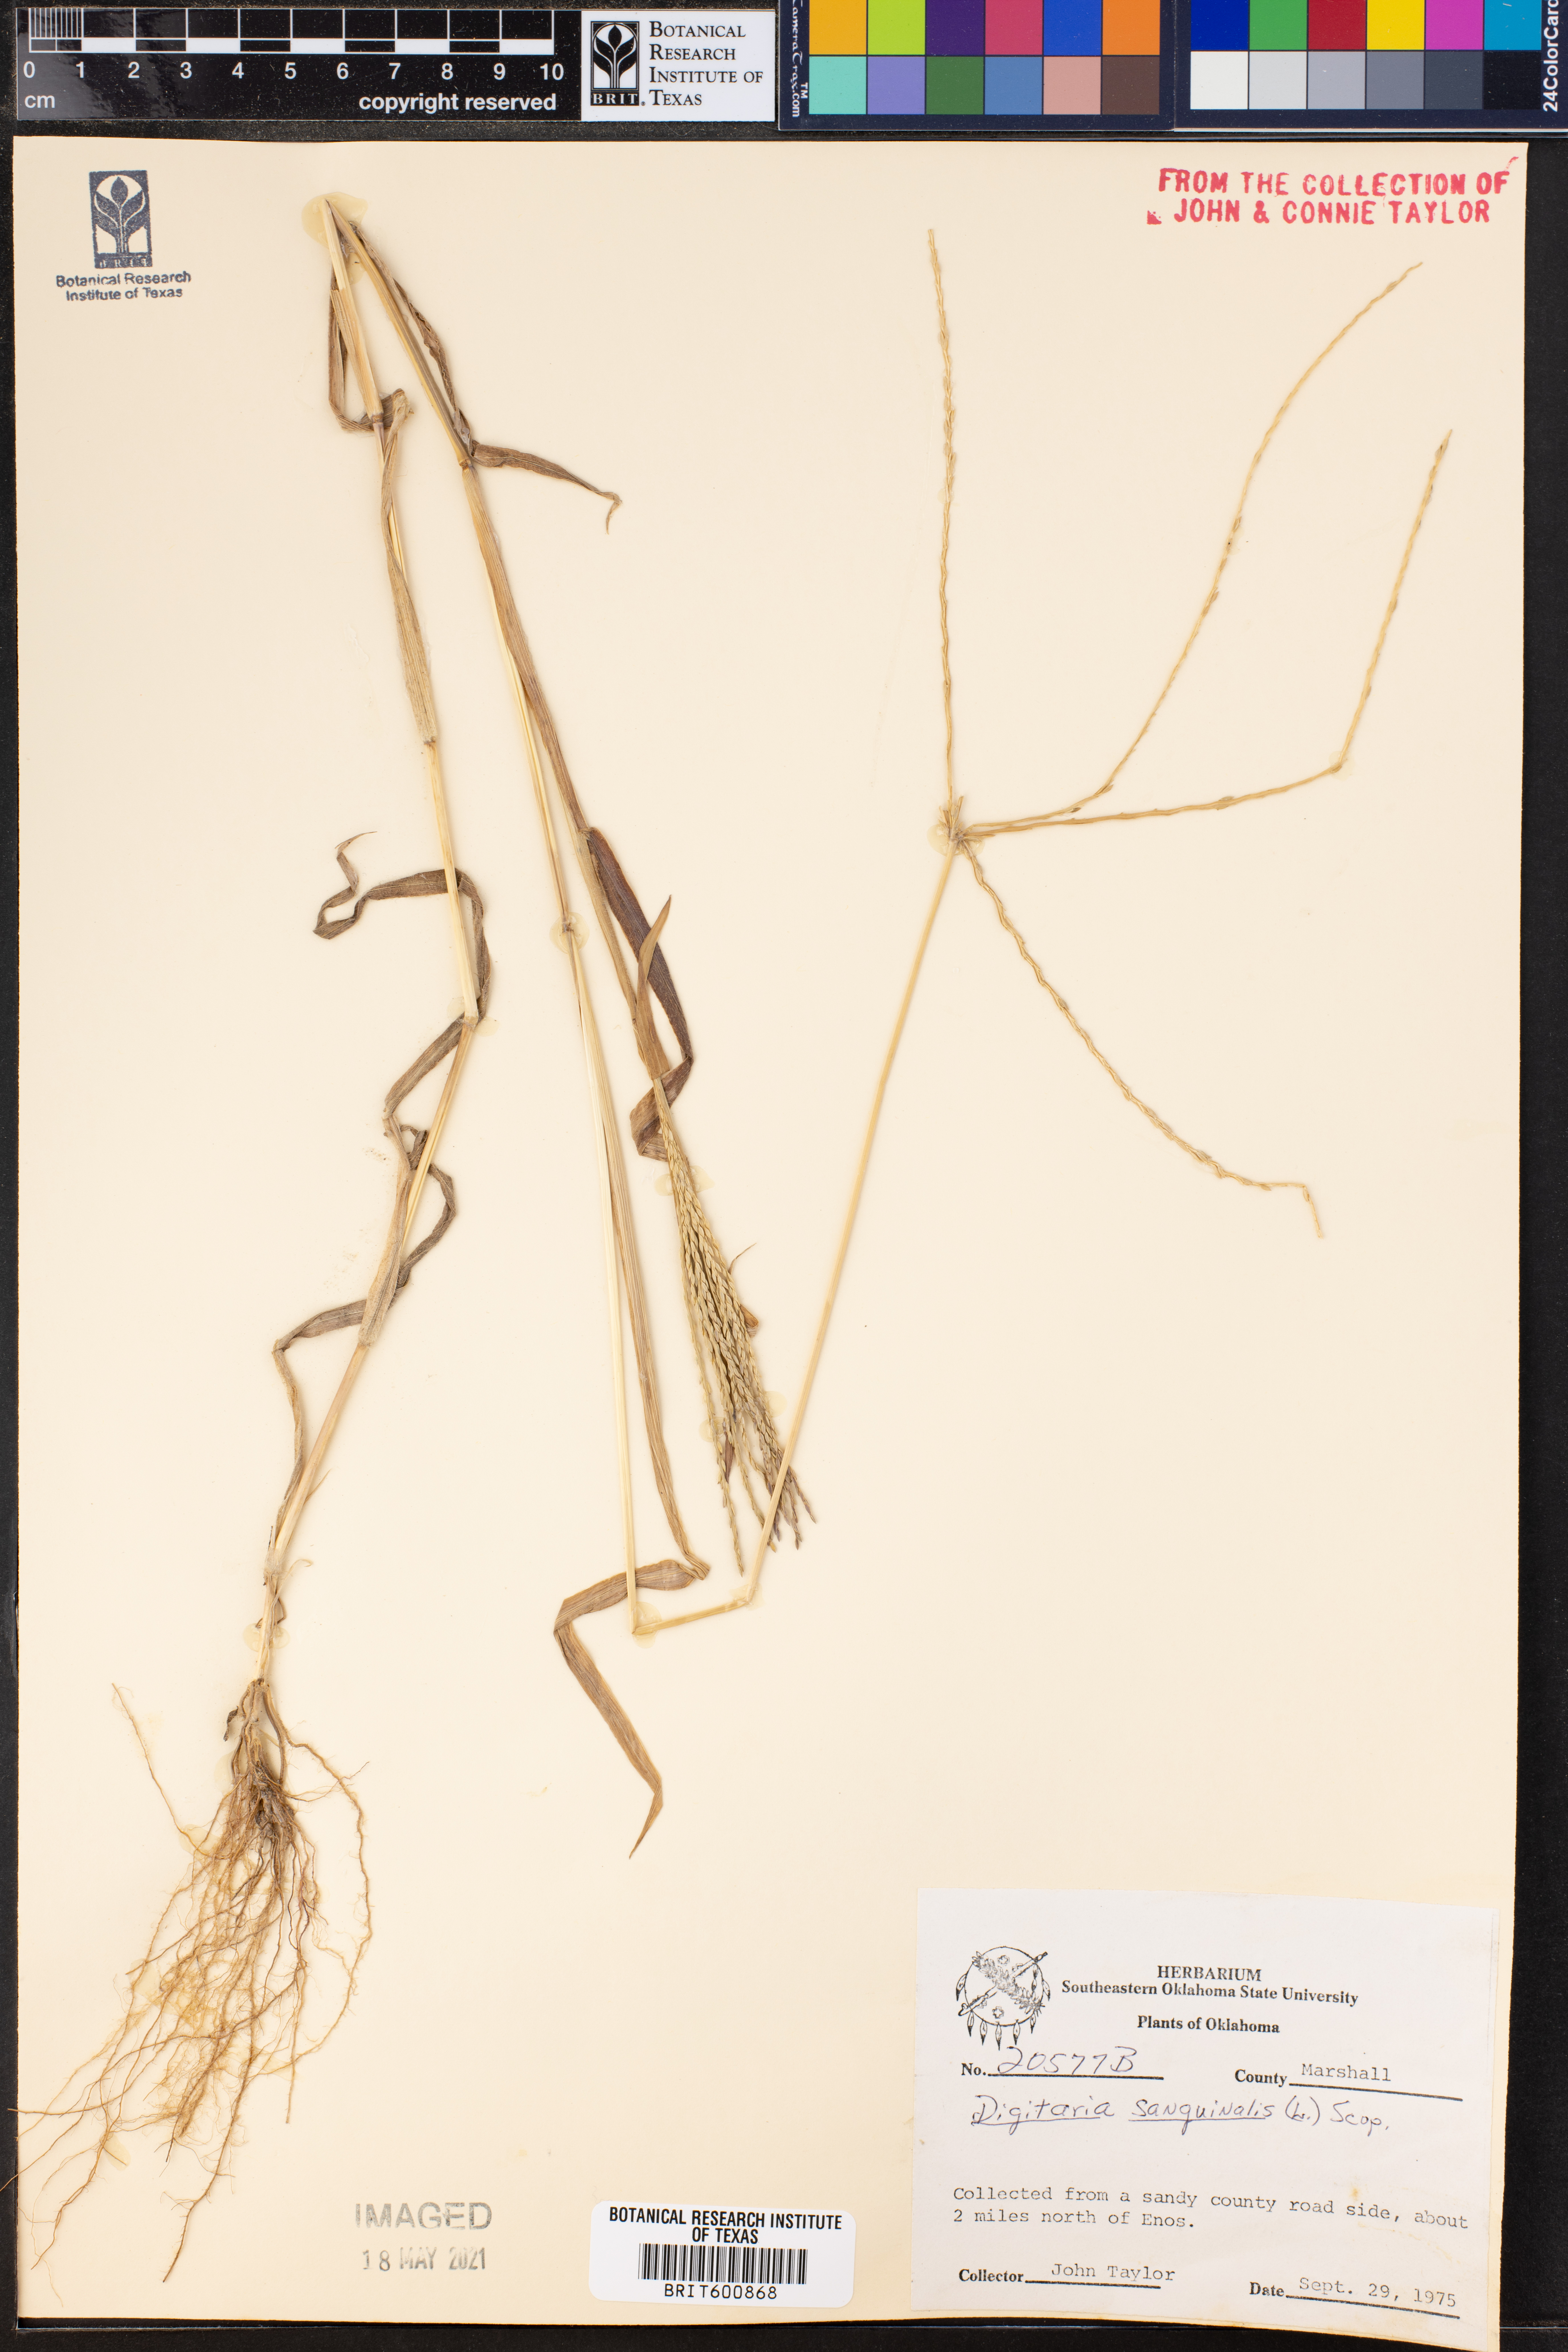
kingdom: Plantae
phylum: Tracheophyta
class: Liliopsida
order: Poales
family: Poaceae
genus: Digitaria
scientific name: Digitaria sanguinalis
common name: Hairy crabgrass
